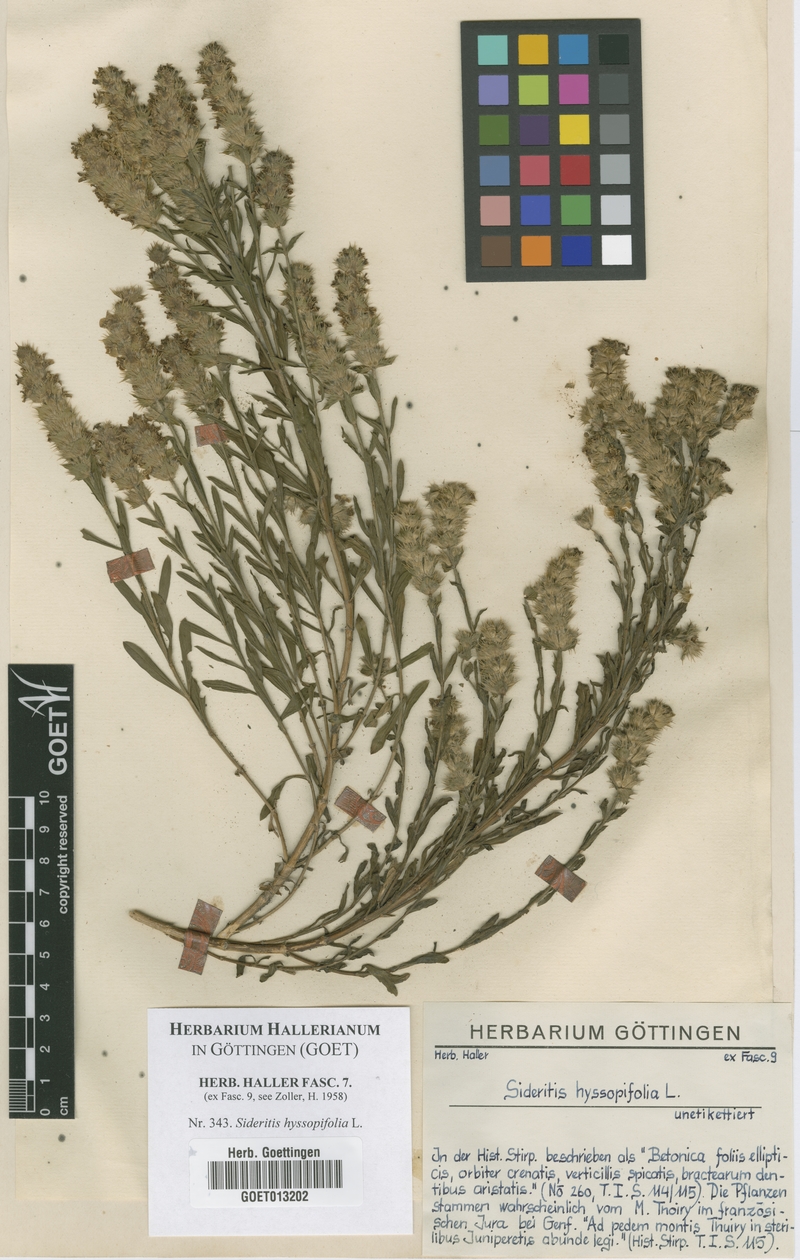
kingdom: Plantae
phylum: Tracheophyta
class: Magnoliopsida
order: Lamiales
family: Lamiaceae
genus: Sideritis
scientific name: Sideritis hyssopifolia
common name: Mountain tea
